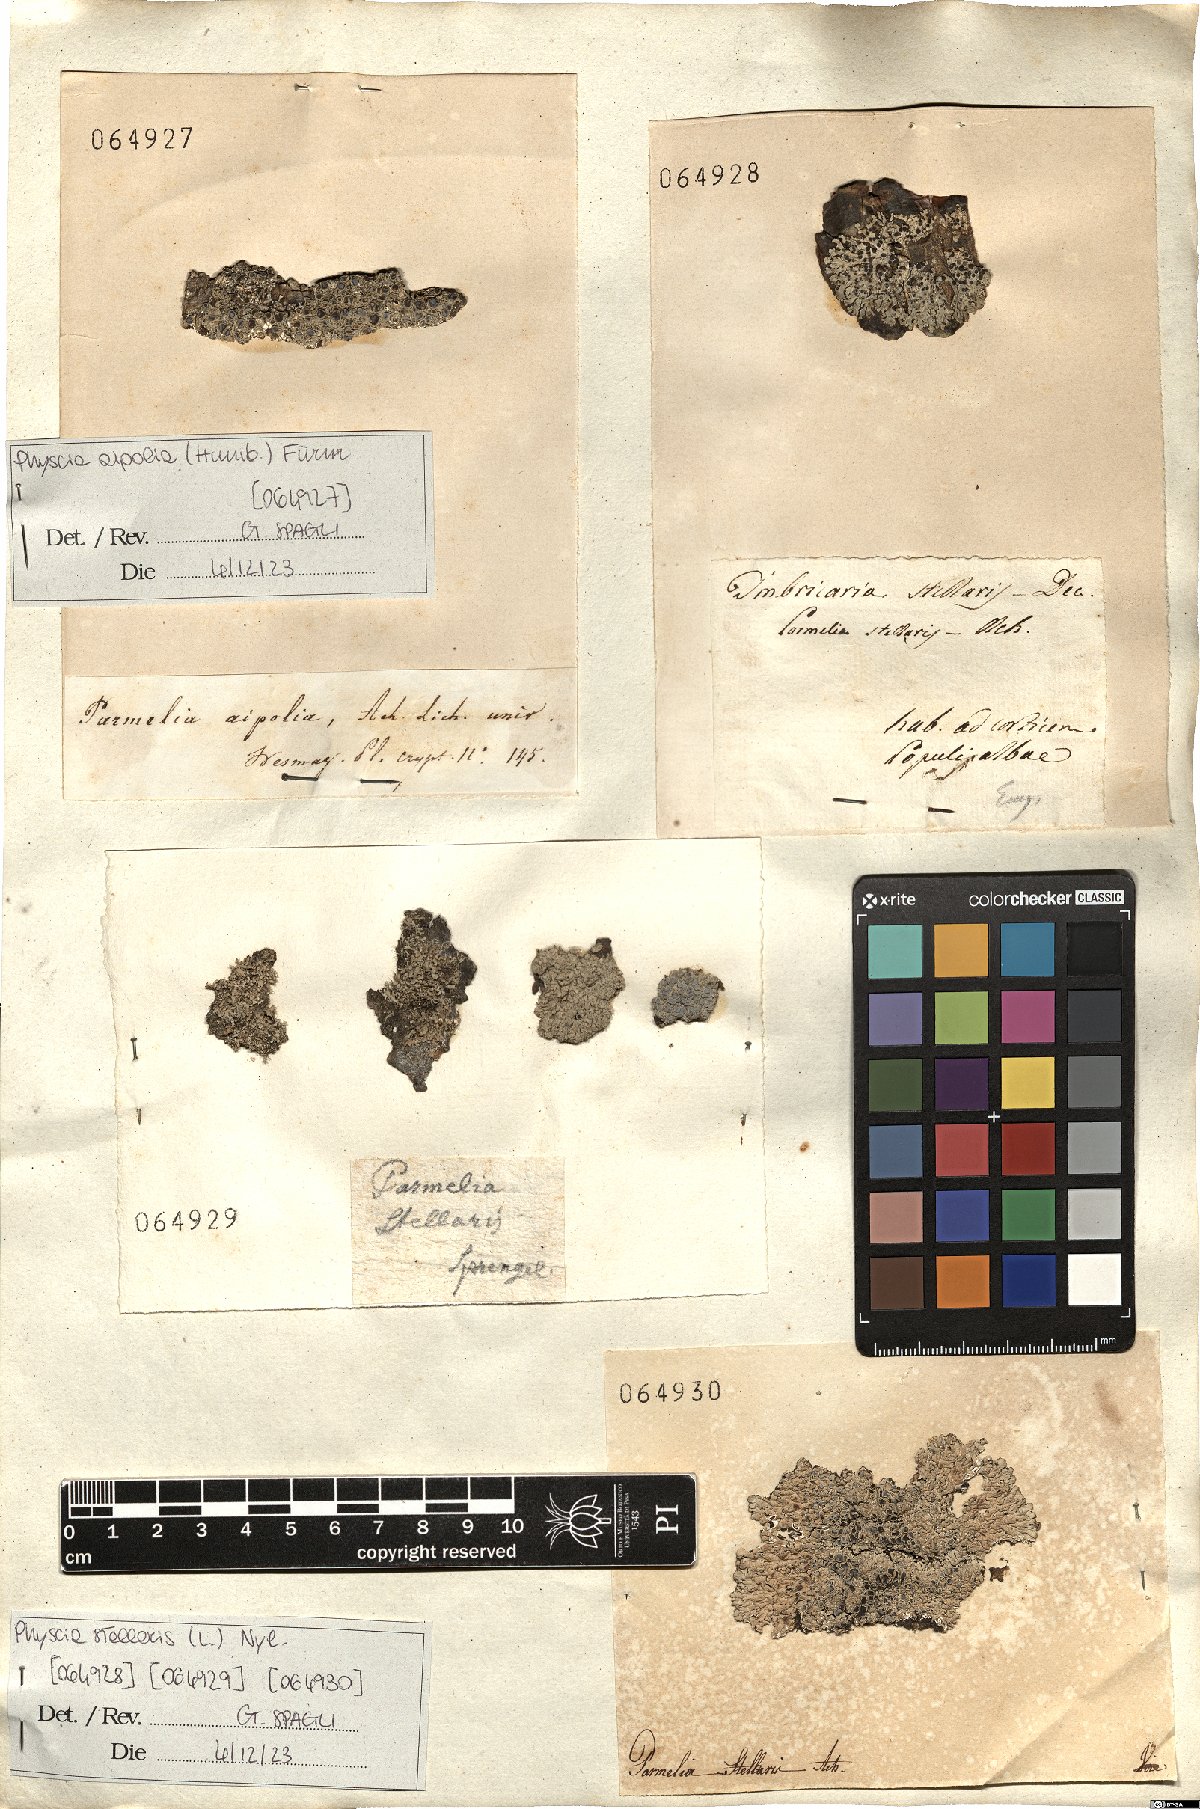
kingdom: Fungi
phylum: Ascomycota
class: Lecanoromycetes
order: Caliciales
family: Physciaceae
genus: Physcia
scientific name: Physcia stellaris
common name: Star rosette lichen
